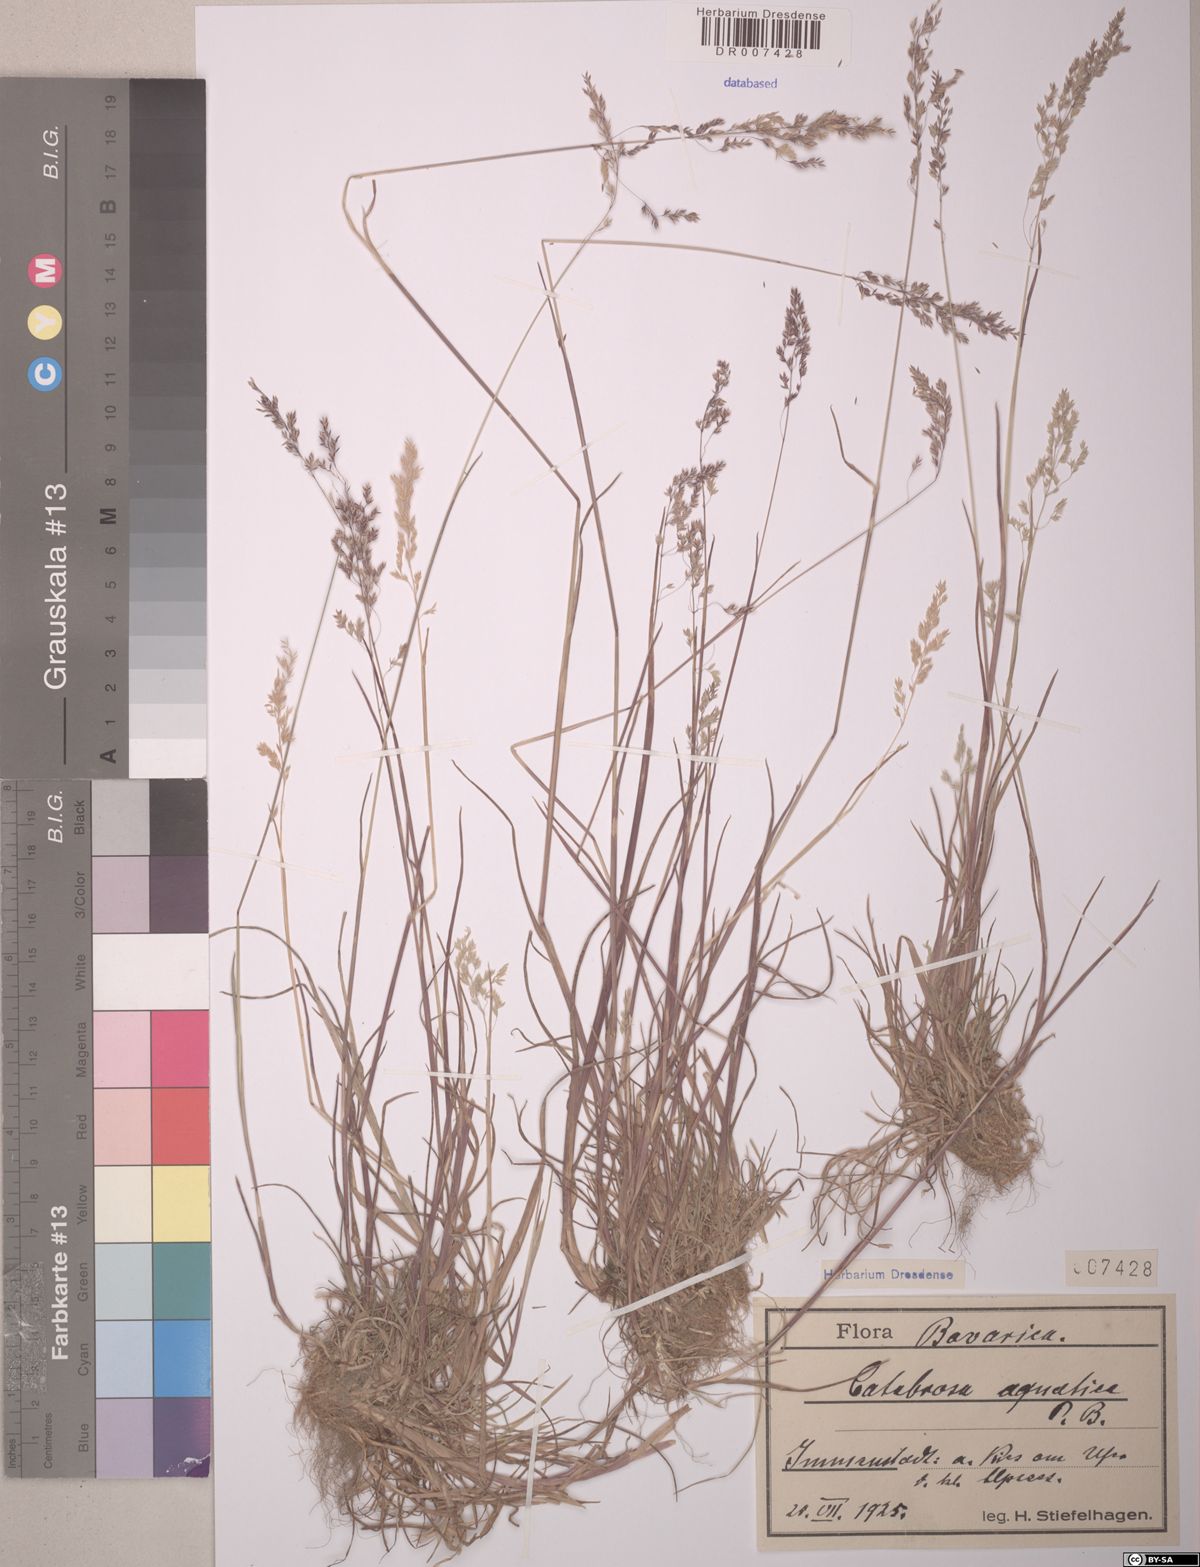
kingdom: Plantae
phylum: Tracheophyta
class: Liliopsida
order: Poales
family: Poaceae
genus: Catabrosa
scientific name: Catabrosa aquatica
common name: Whorl-grass
